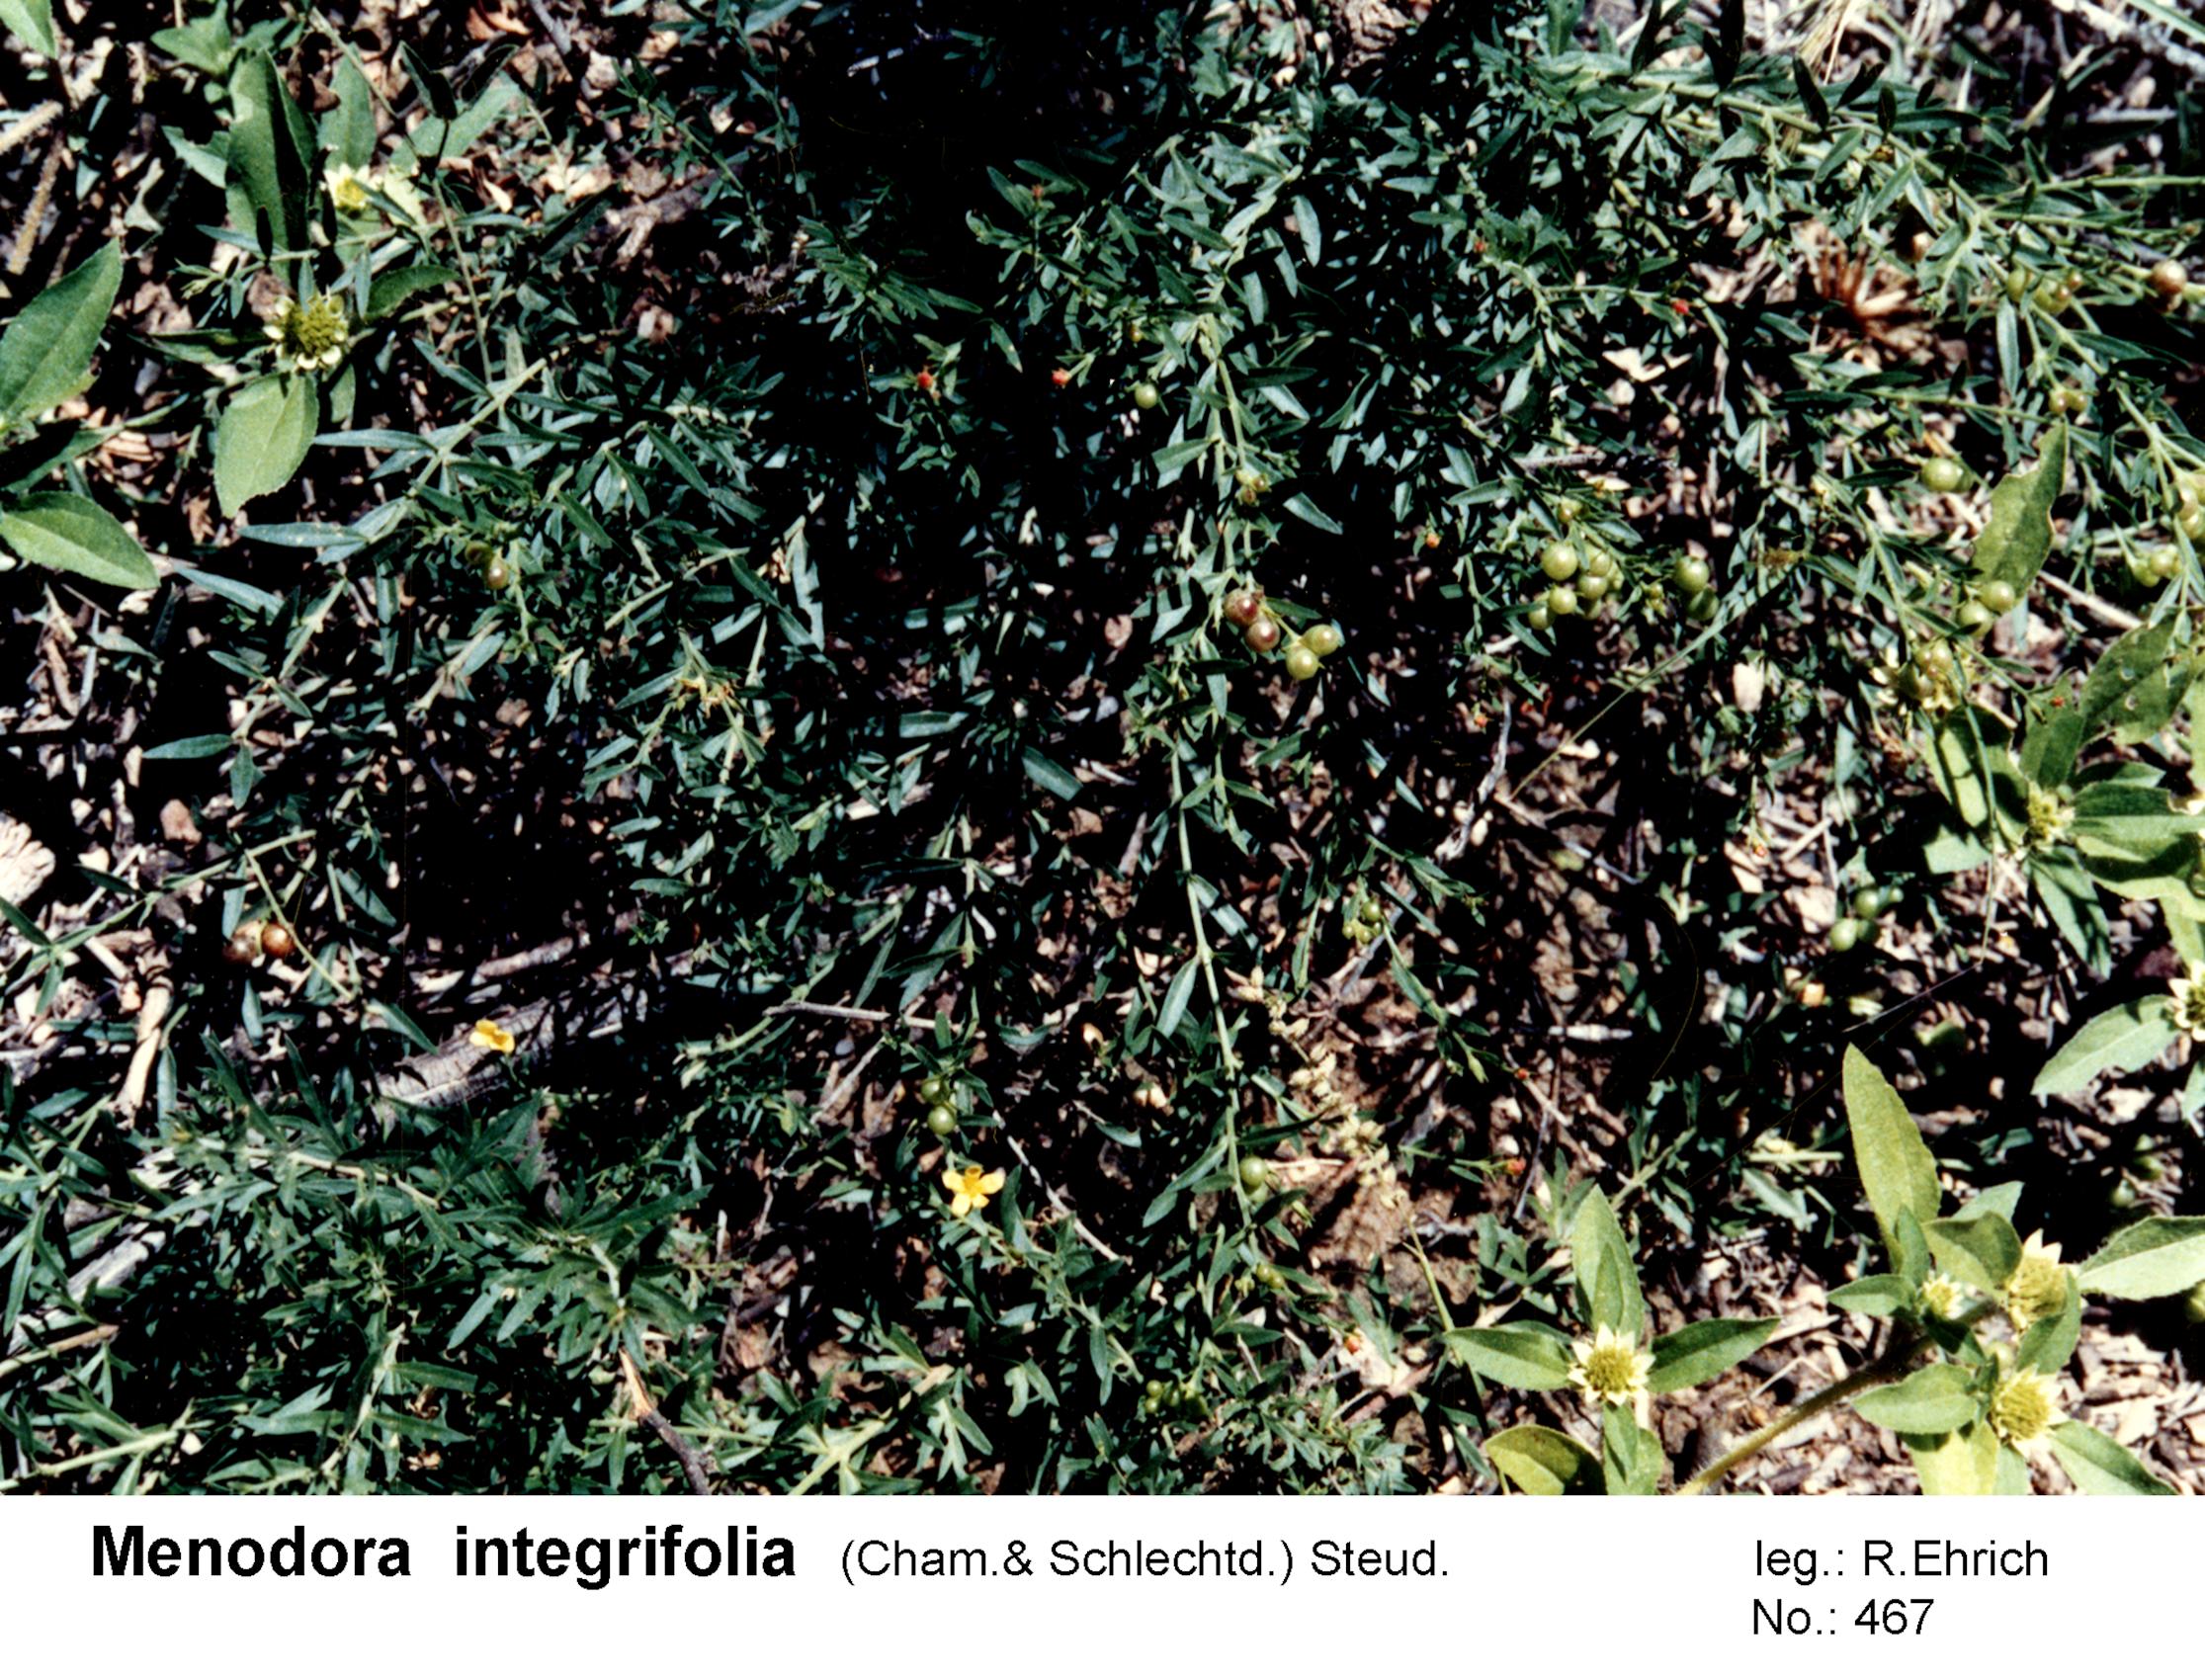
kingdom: Plantae
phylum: Tracheophyta
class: Magnoliopsida
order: Lamiales
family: Oleaceae
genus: Menodora
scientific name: Menodora integrifolia
